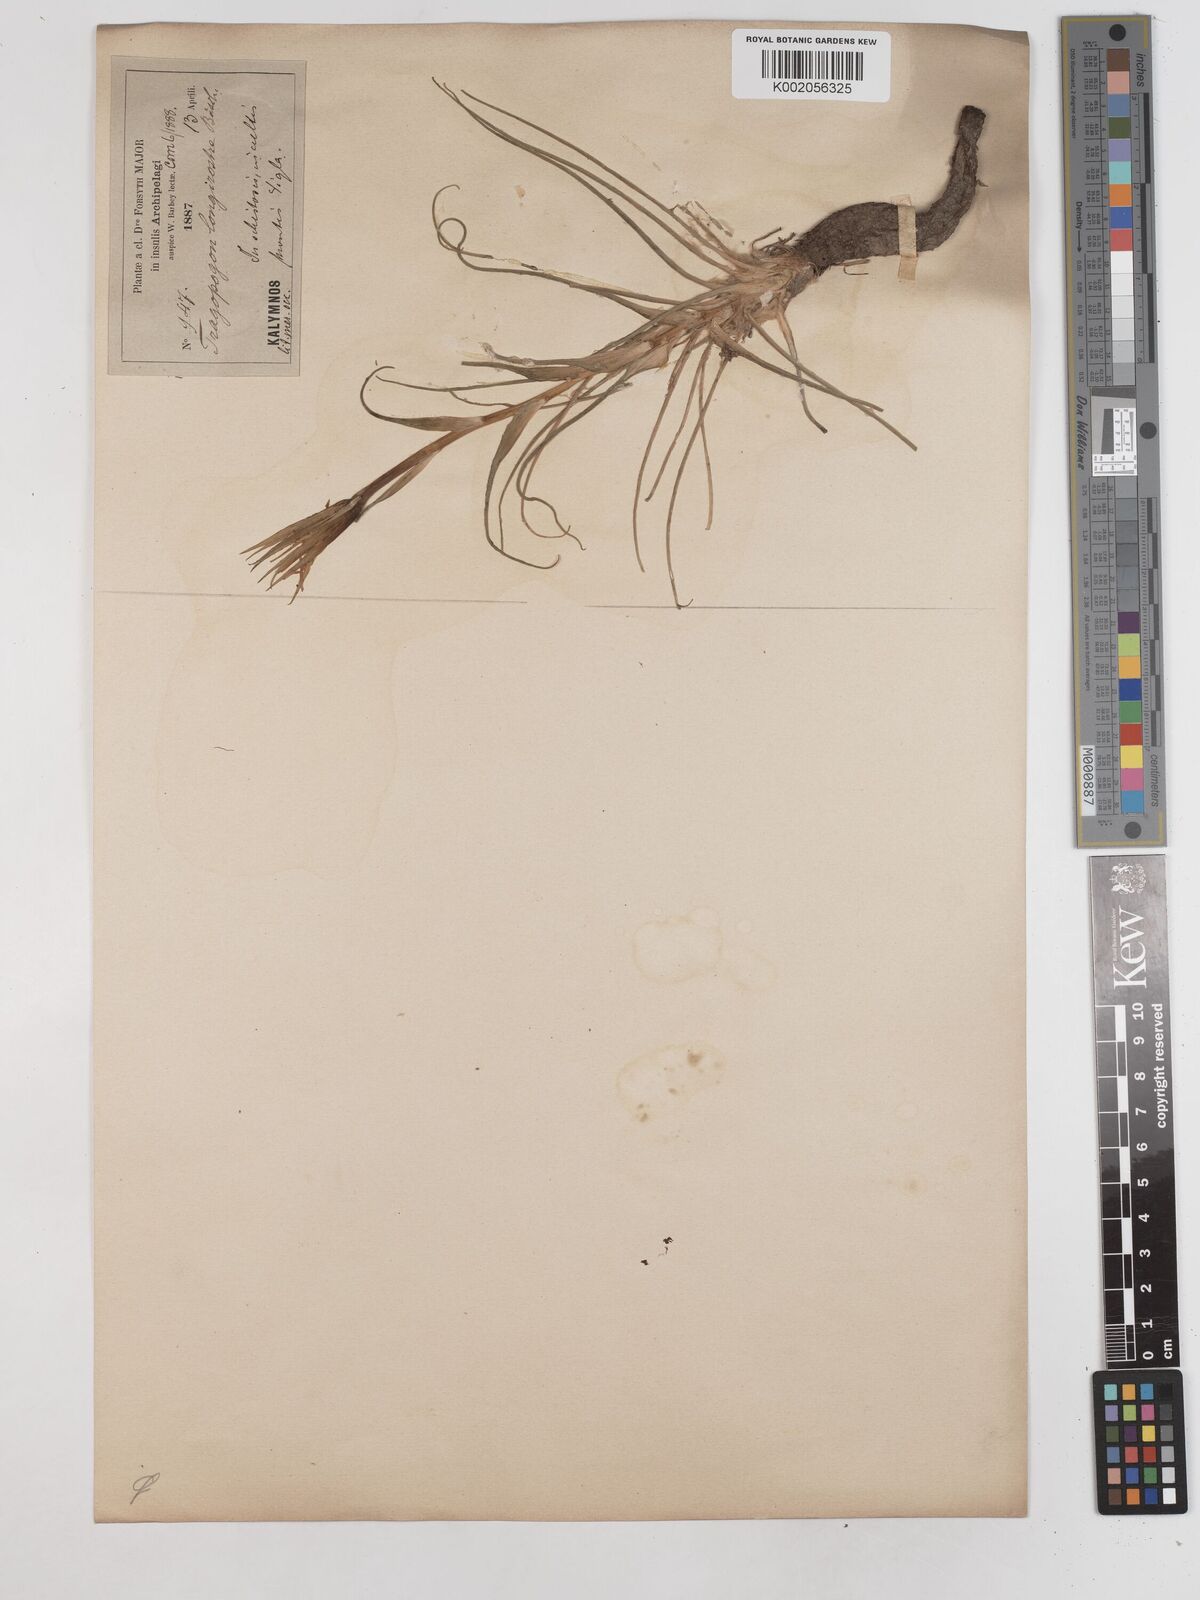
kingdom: Plantae
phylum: Tracheophyta
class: Magnoliopsida
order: Asterales
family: Asteraceae
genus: Tragopogon
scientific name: Tragopogon coelesyriacus
